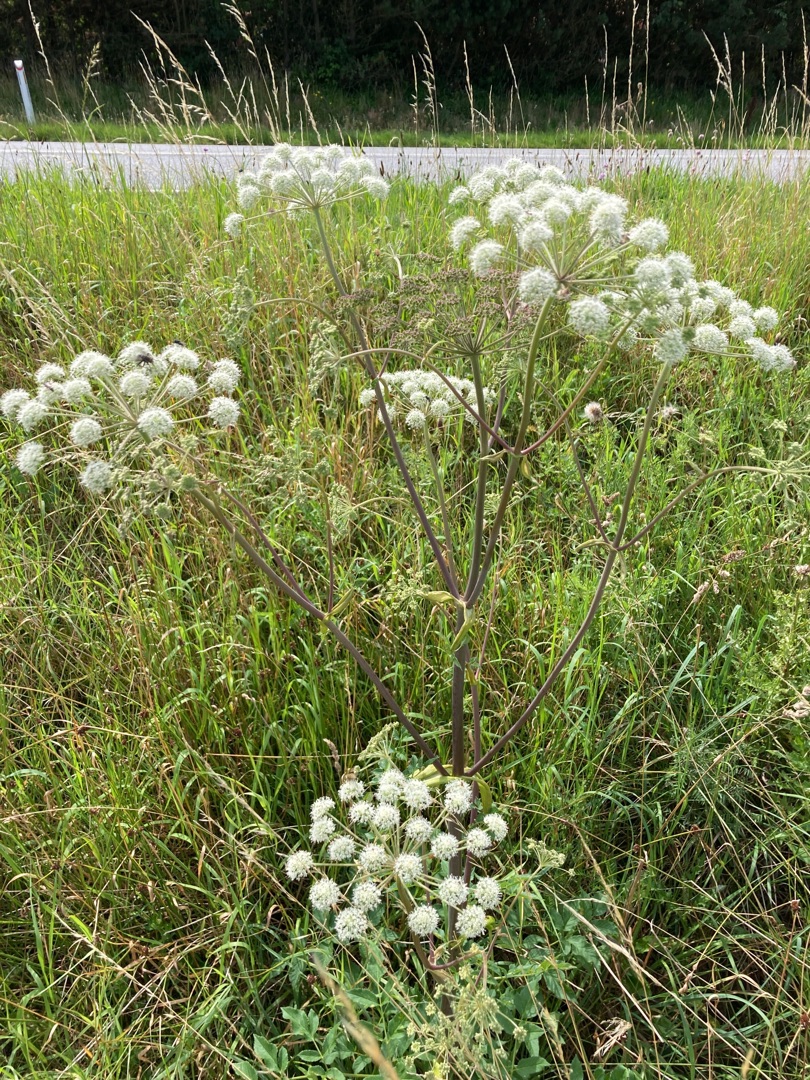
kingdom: Plantae
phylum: Tracheophyta
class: Magnoliopsida
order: Apiales
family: Apiaceae
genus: Angelica
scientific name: Angelica sylvestris
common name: Angelik
